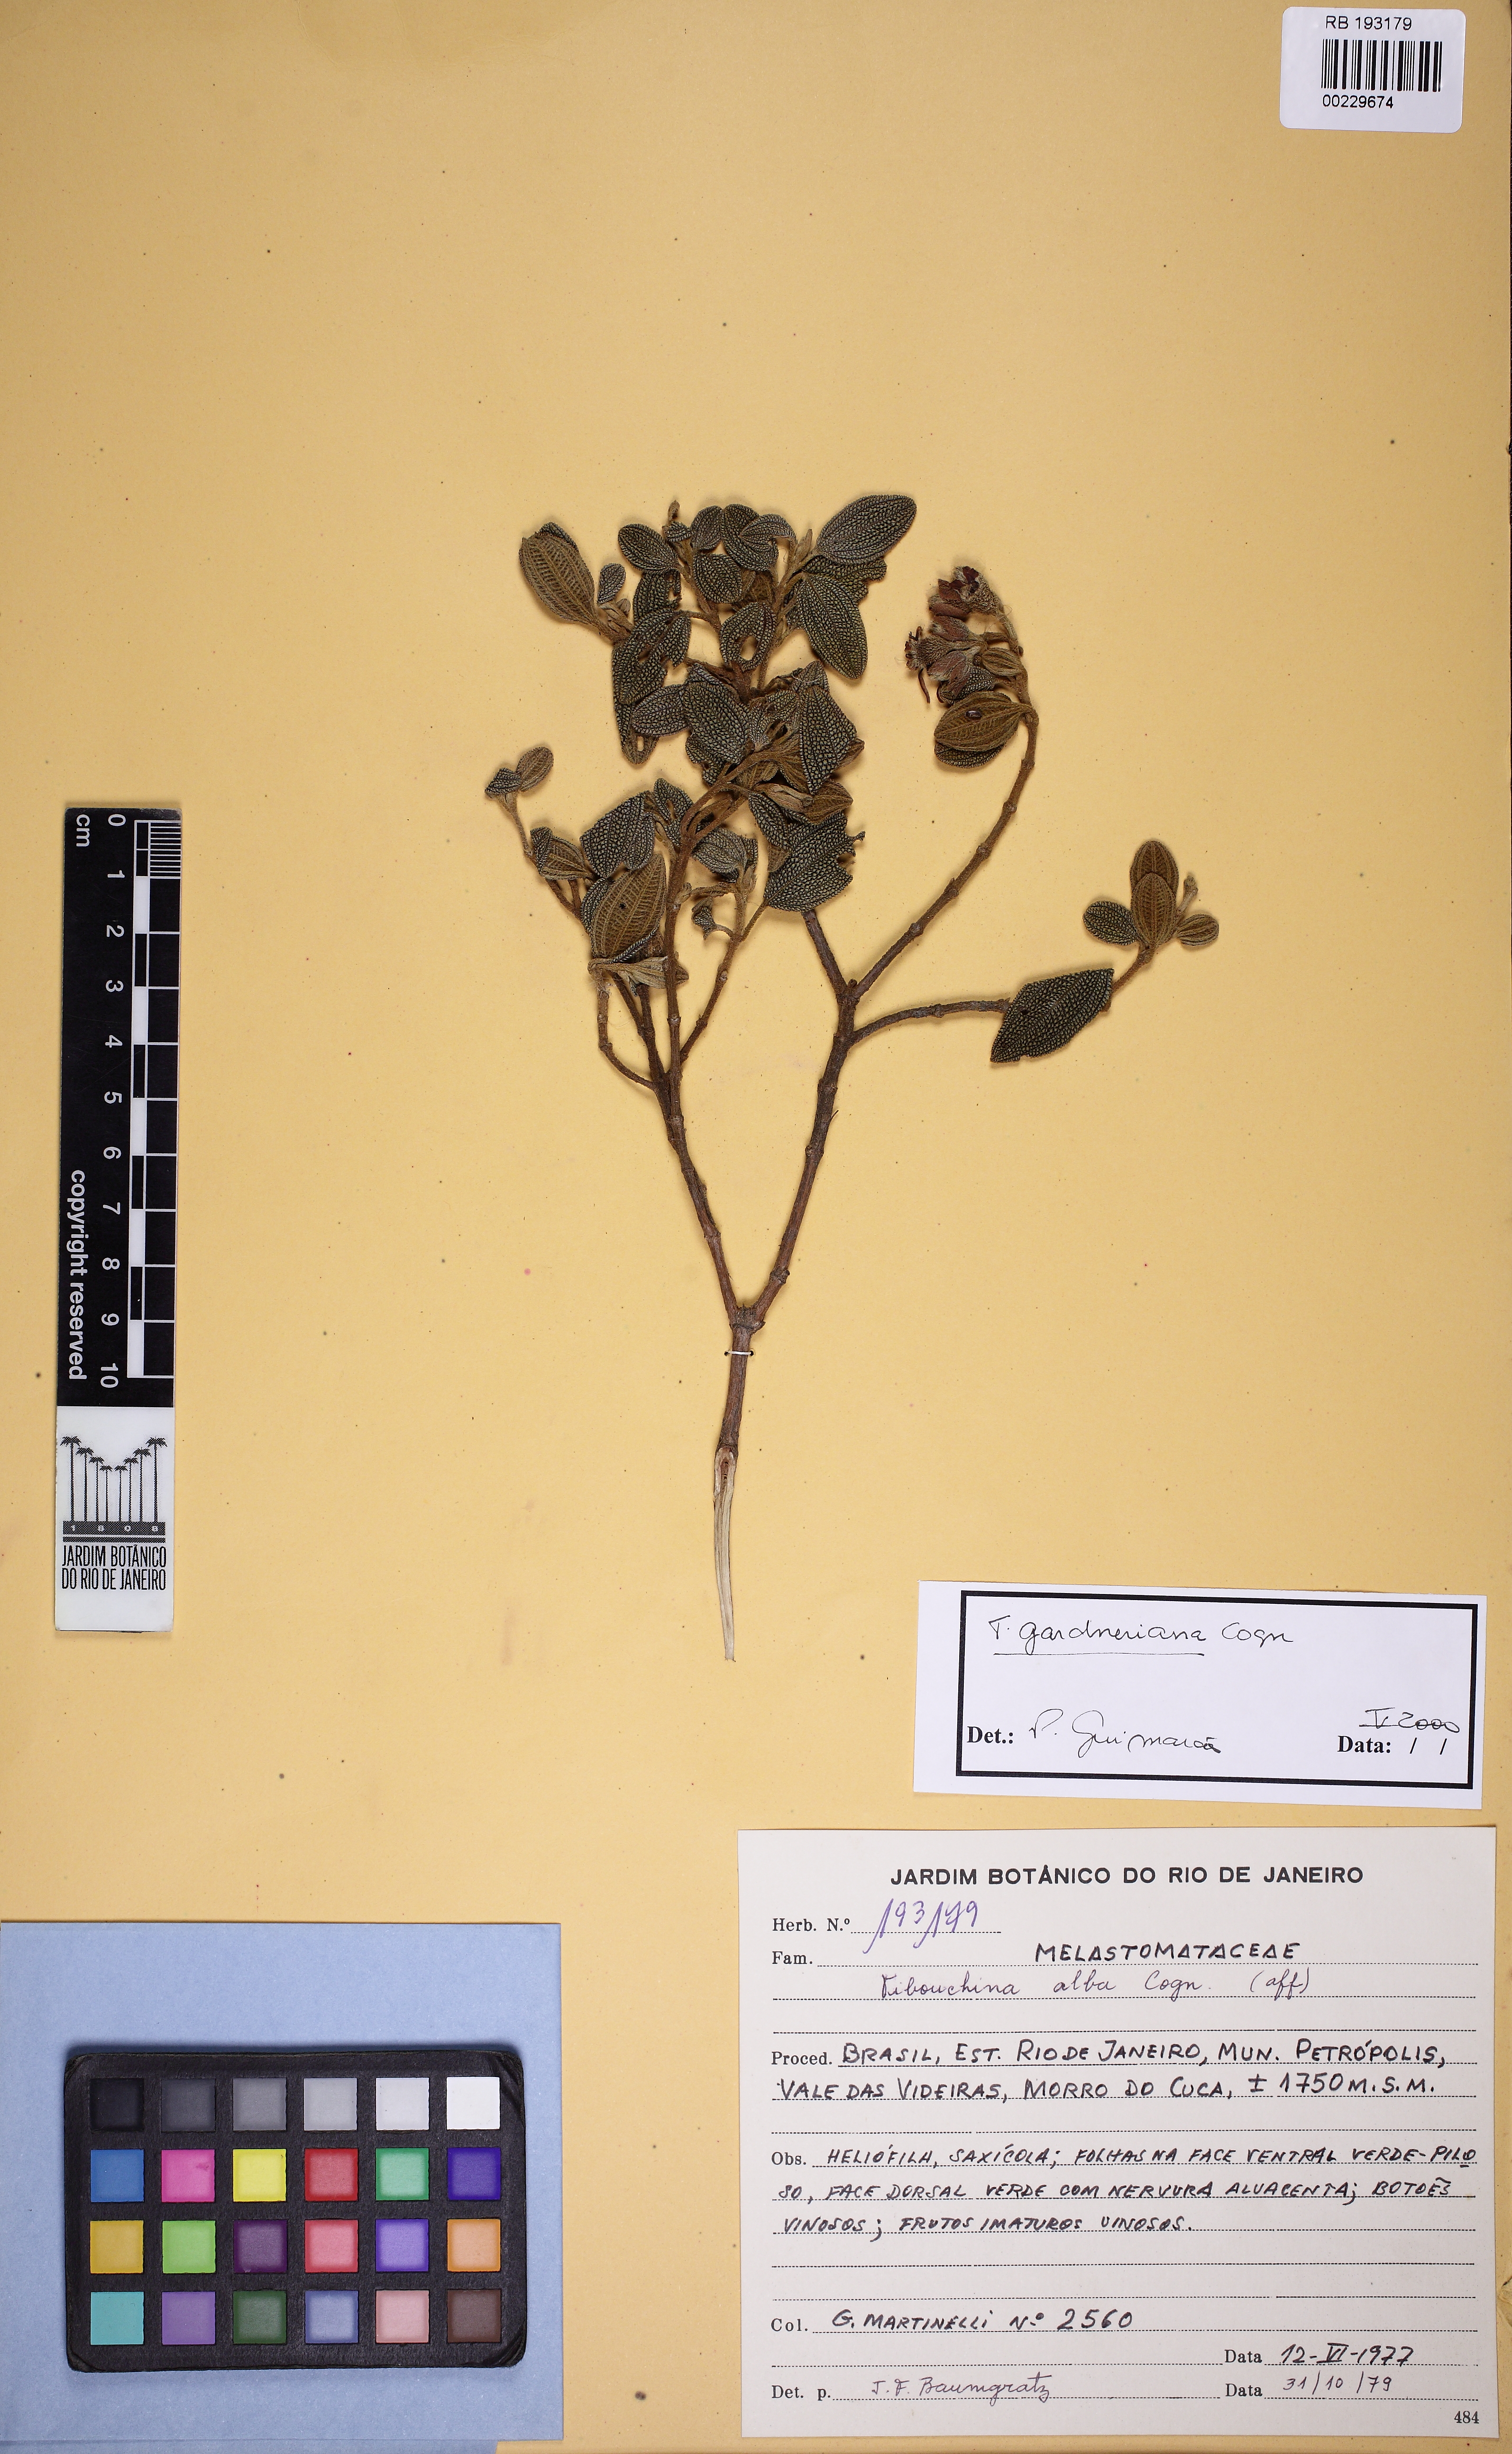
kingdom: Plantae
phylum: Tracheophyta
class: Magnoliopsida
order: Myrtales
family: Melastomataceae
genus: Pleroma
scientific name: Pleroma echinatum
